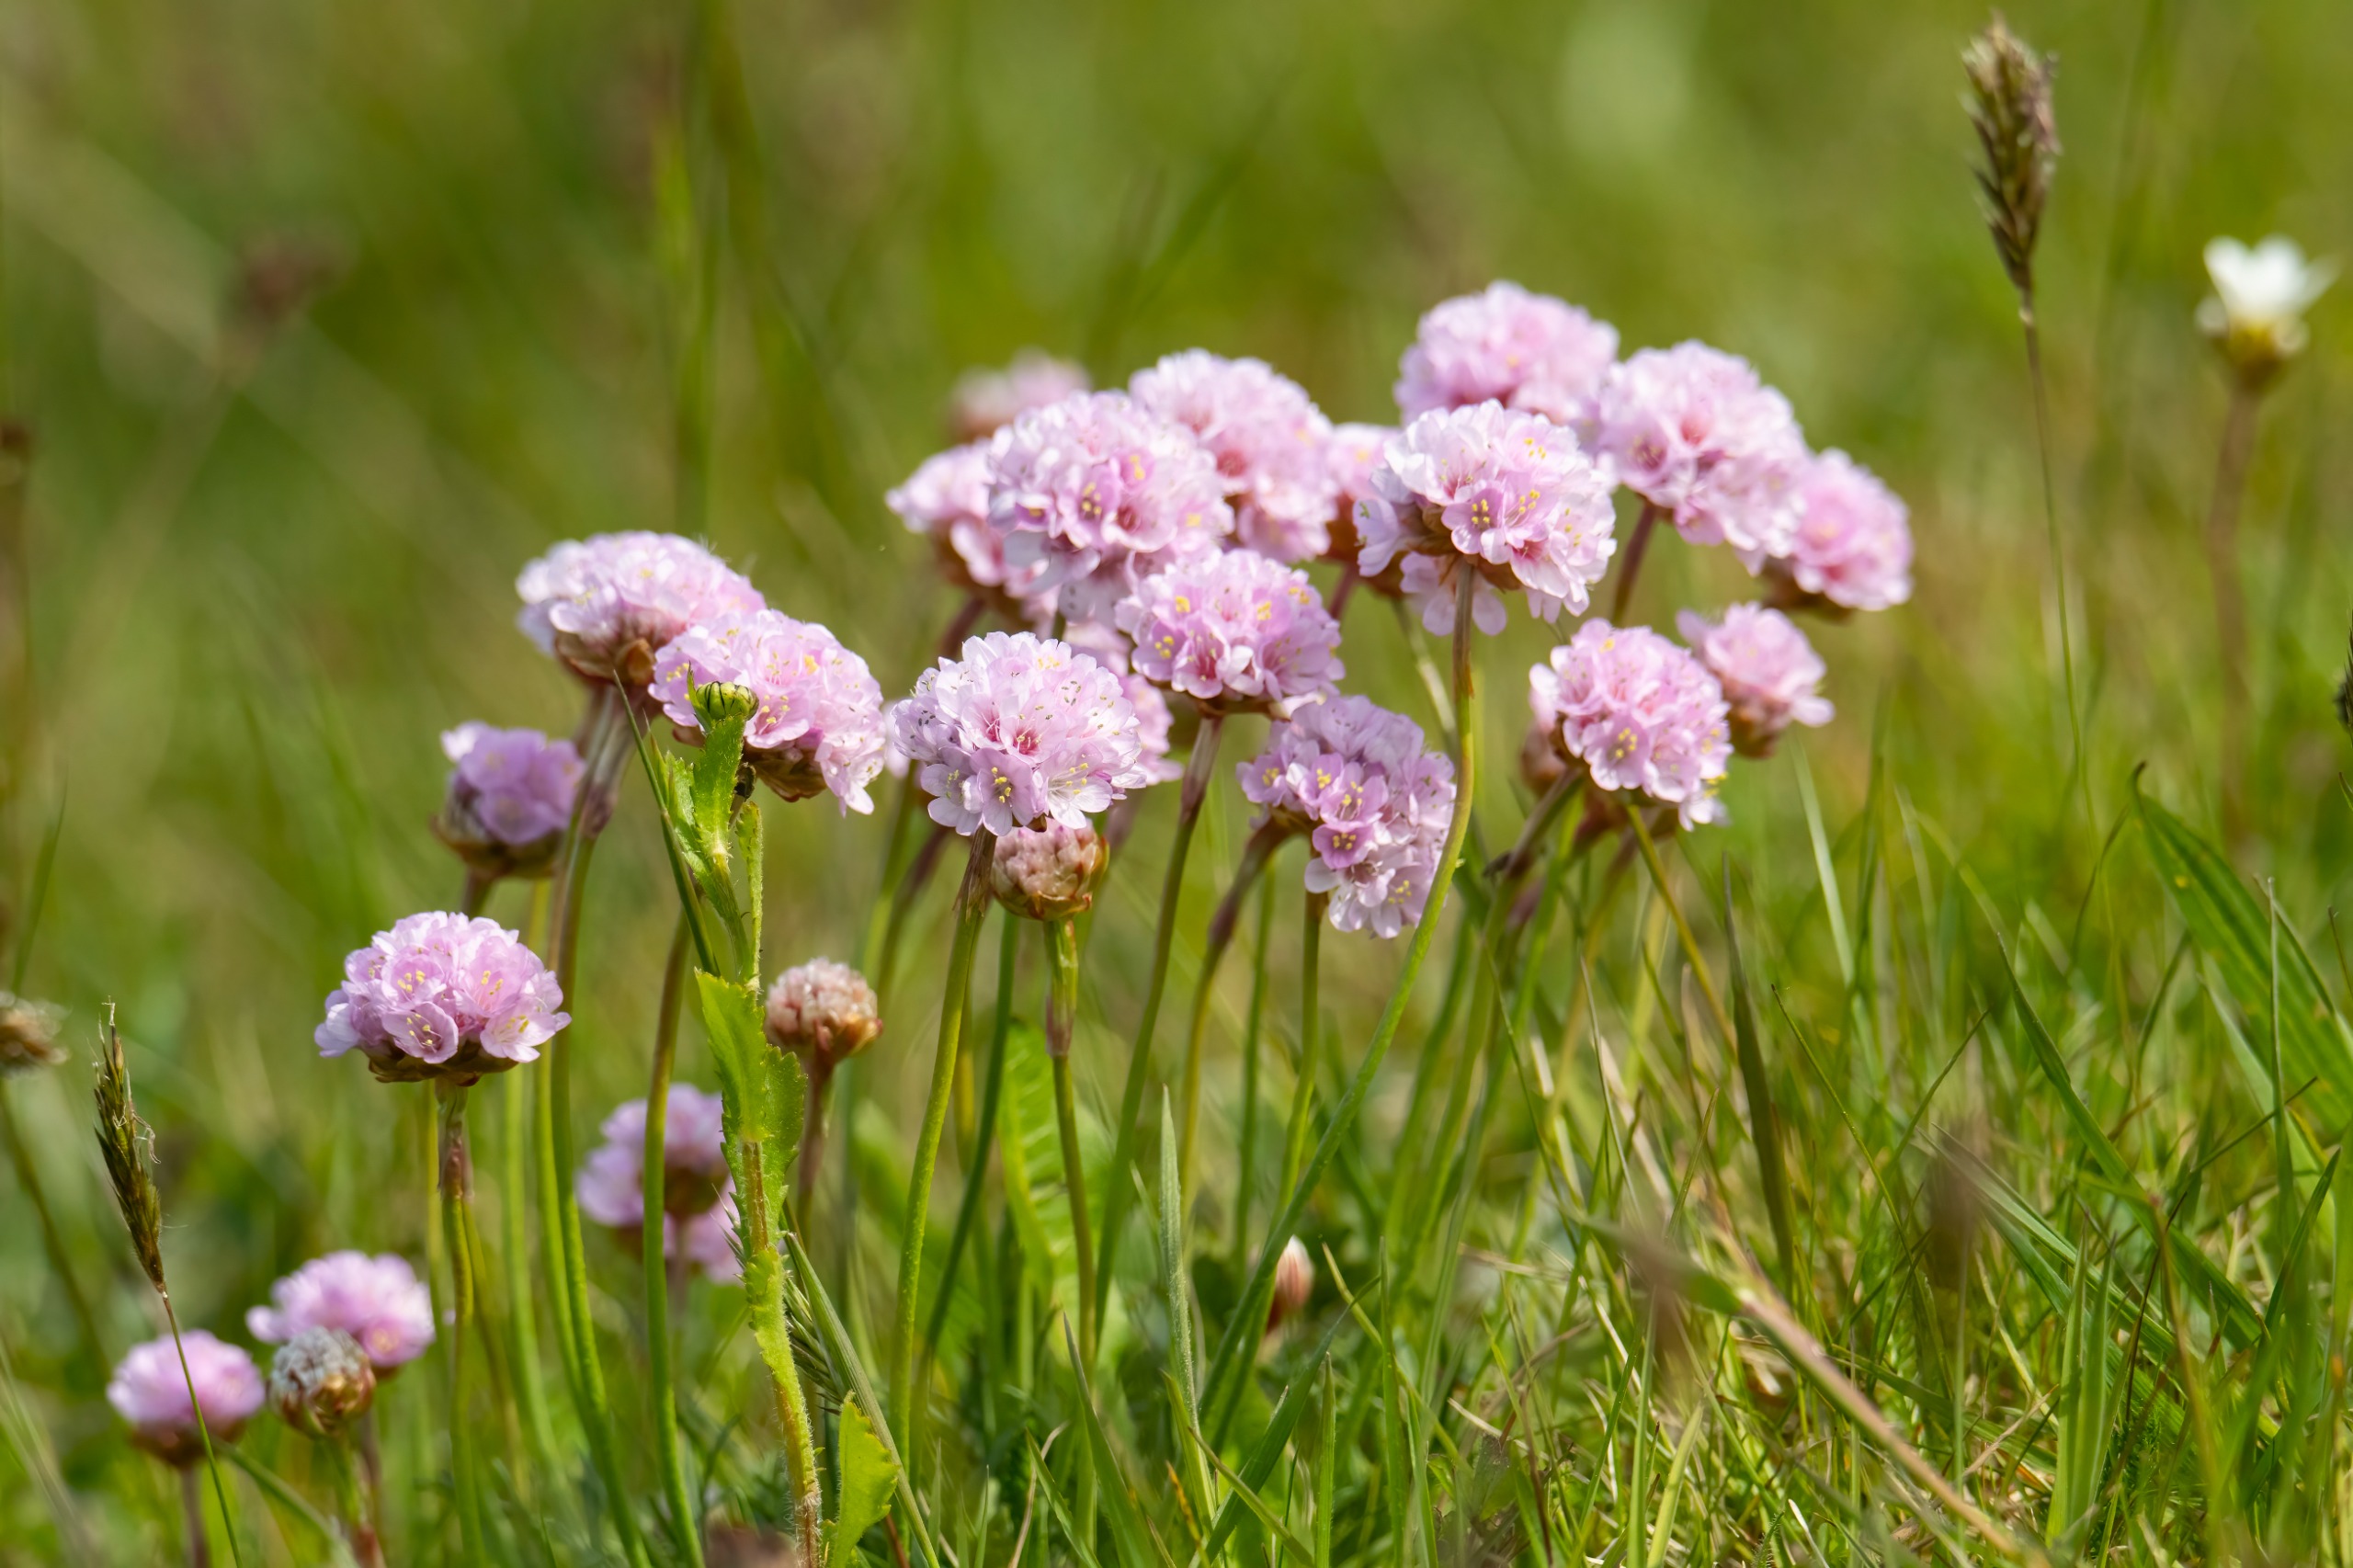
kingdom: Plantae
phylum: Tracheophyta
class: Magnoliopsida
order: Caryophyllales
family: Plumbaginaceae
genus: Armeria
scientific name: Armeria maritima
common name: Engelskgræs
